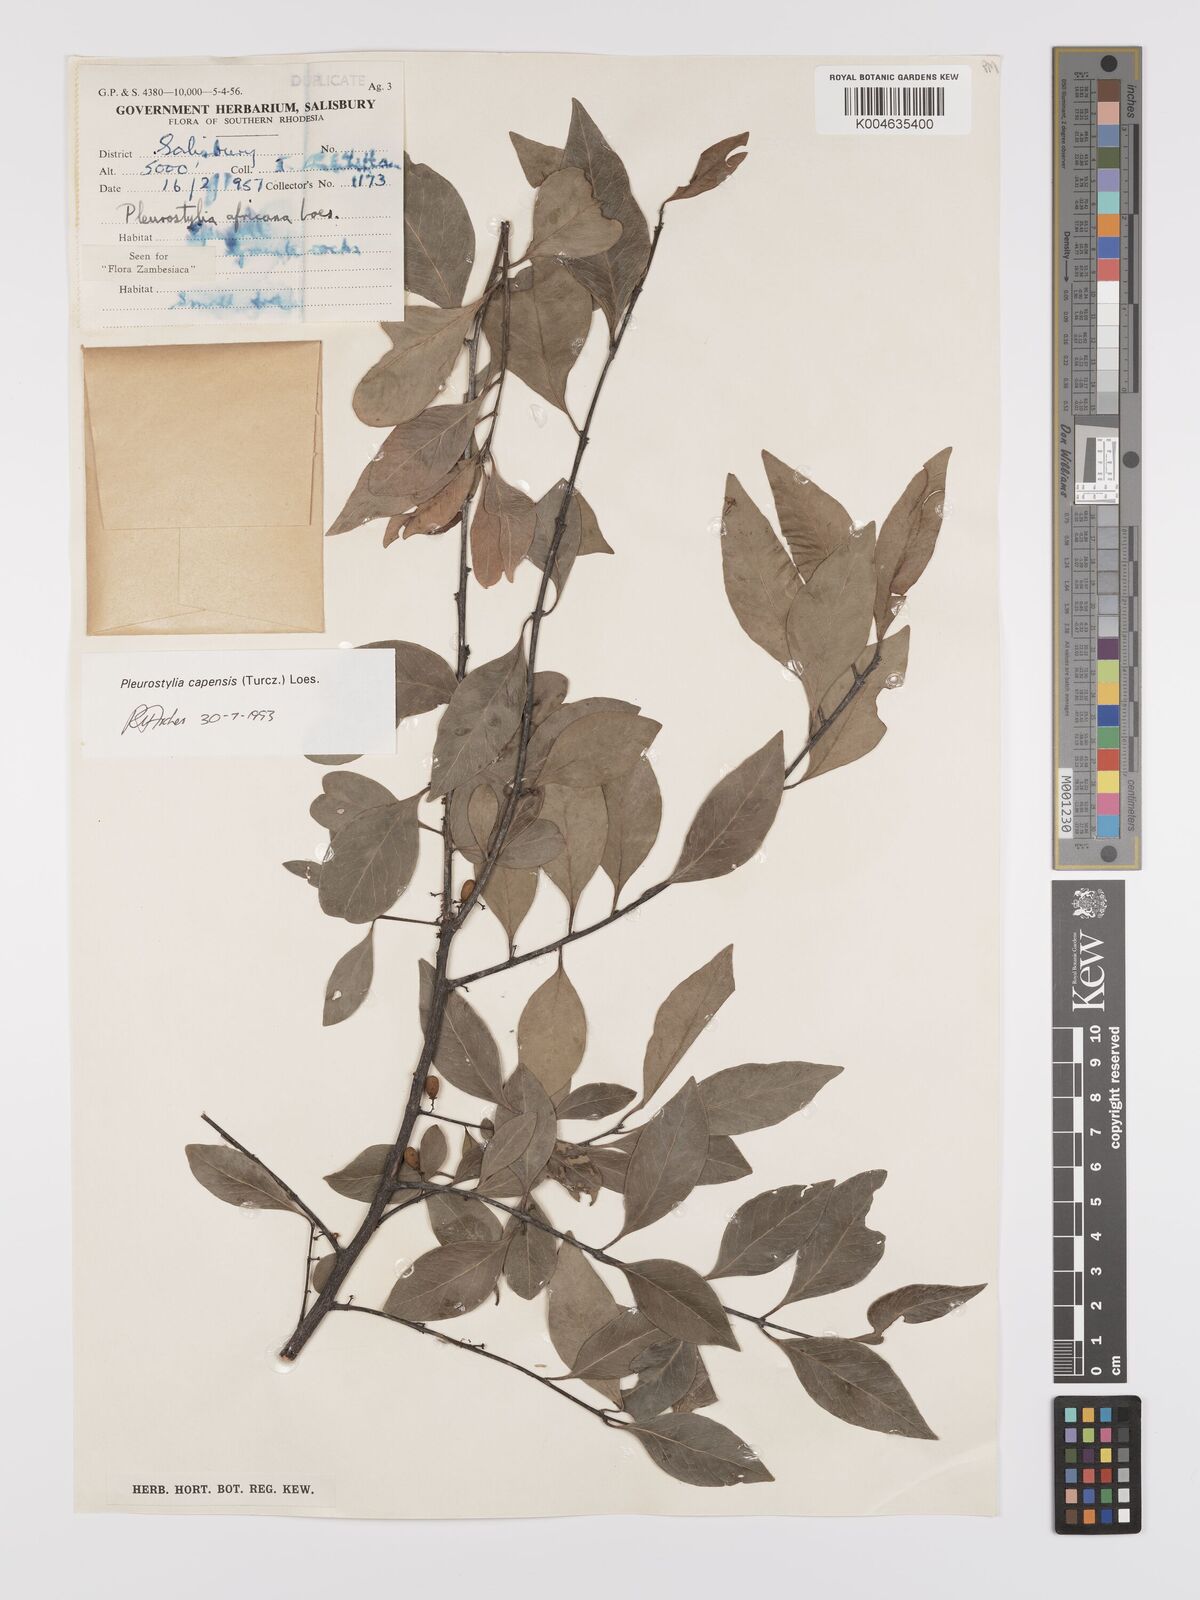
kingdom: Plantae
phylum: Tracheophyta
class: Magnoliopsida
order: Celastrales
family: Celastraceae
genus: Pleurostylia
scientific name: Pleurostylia africana
